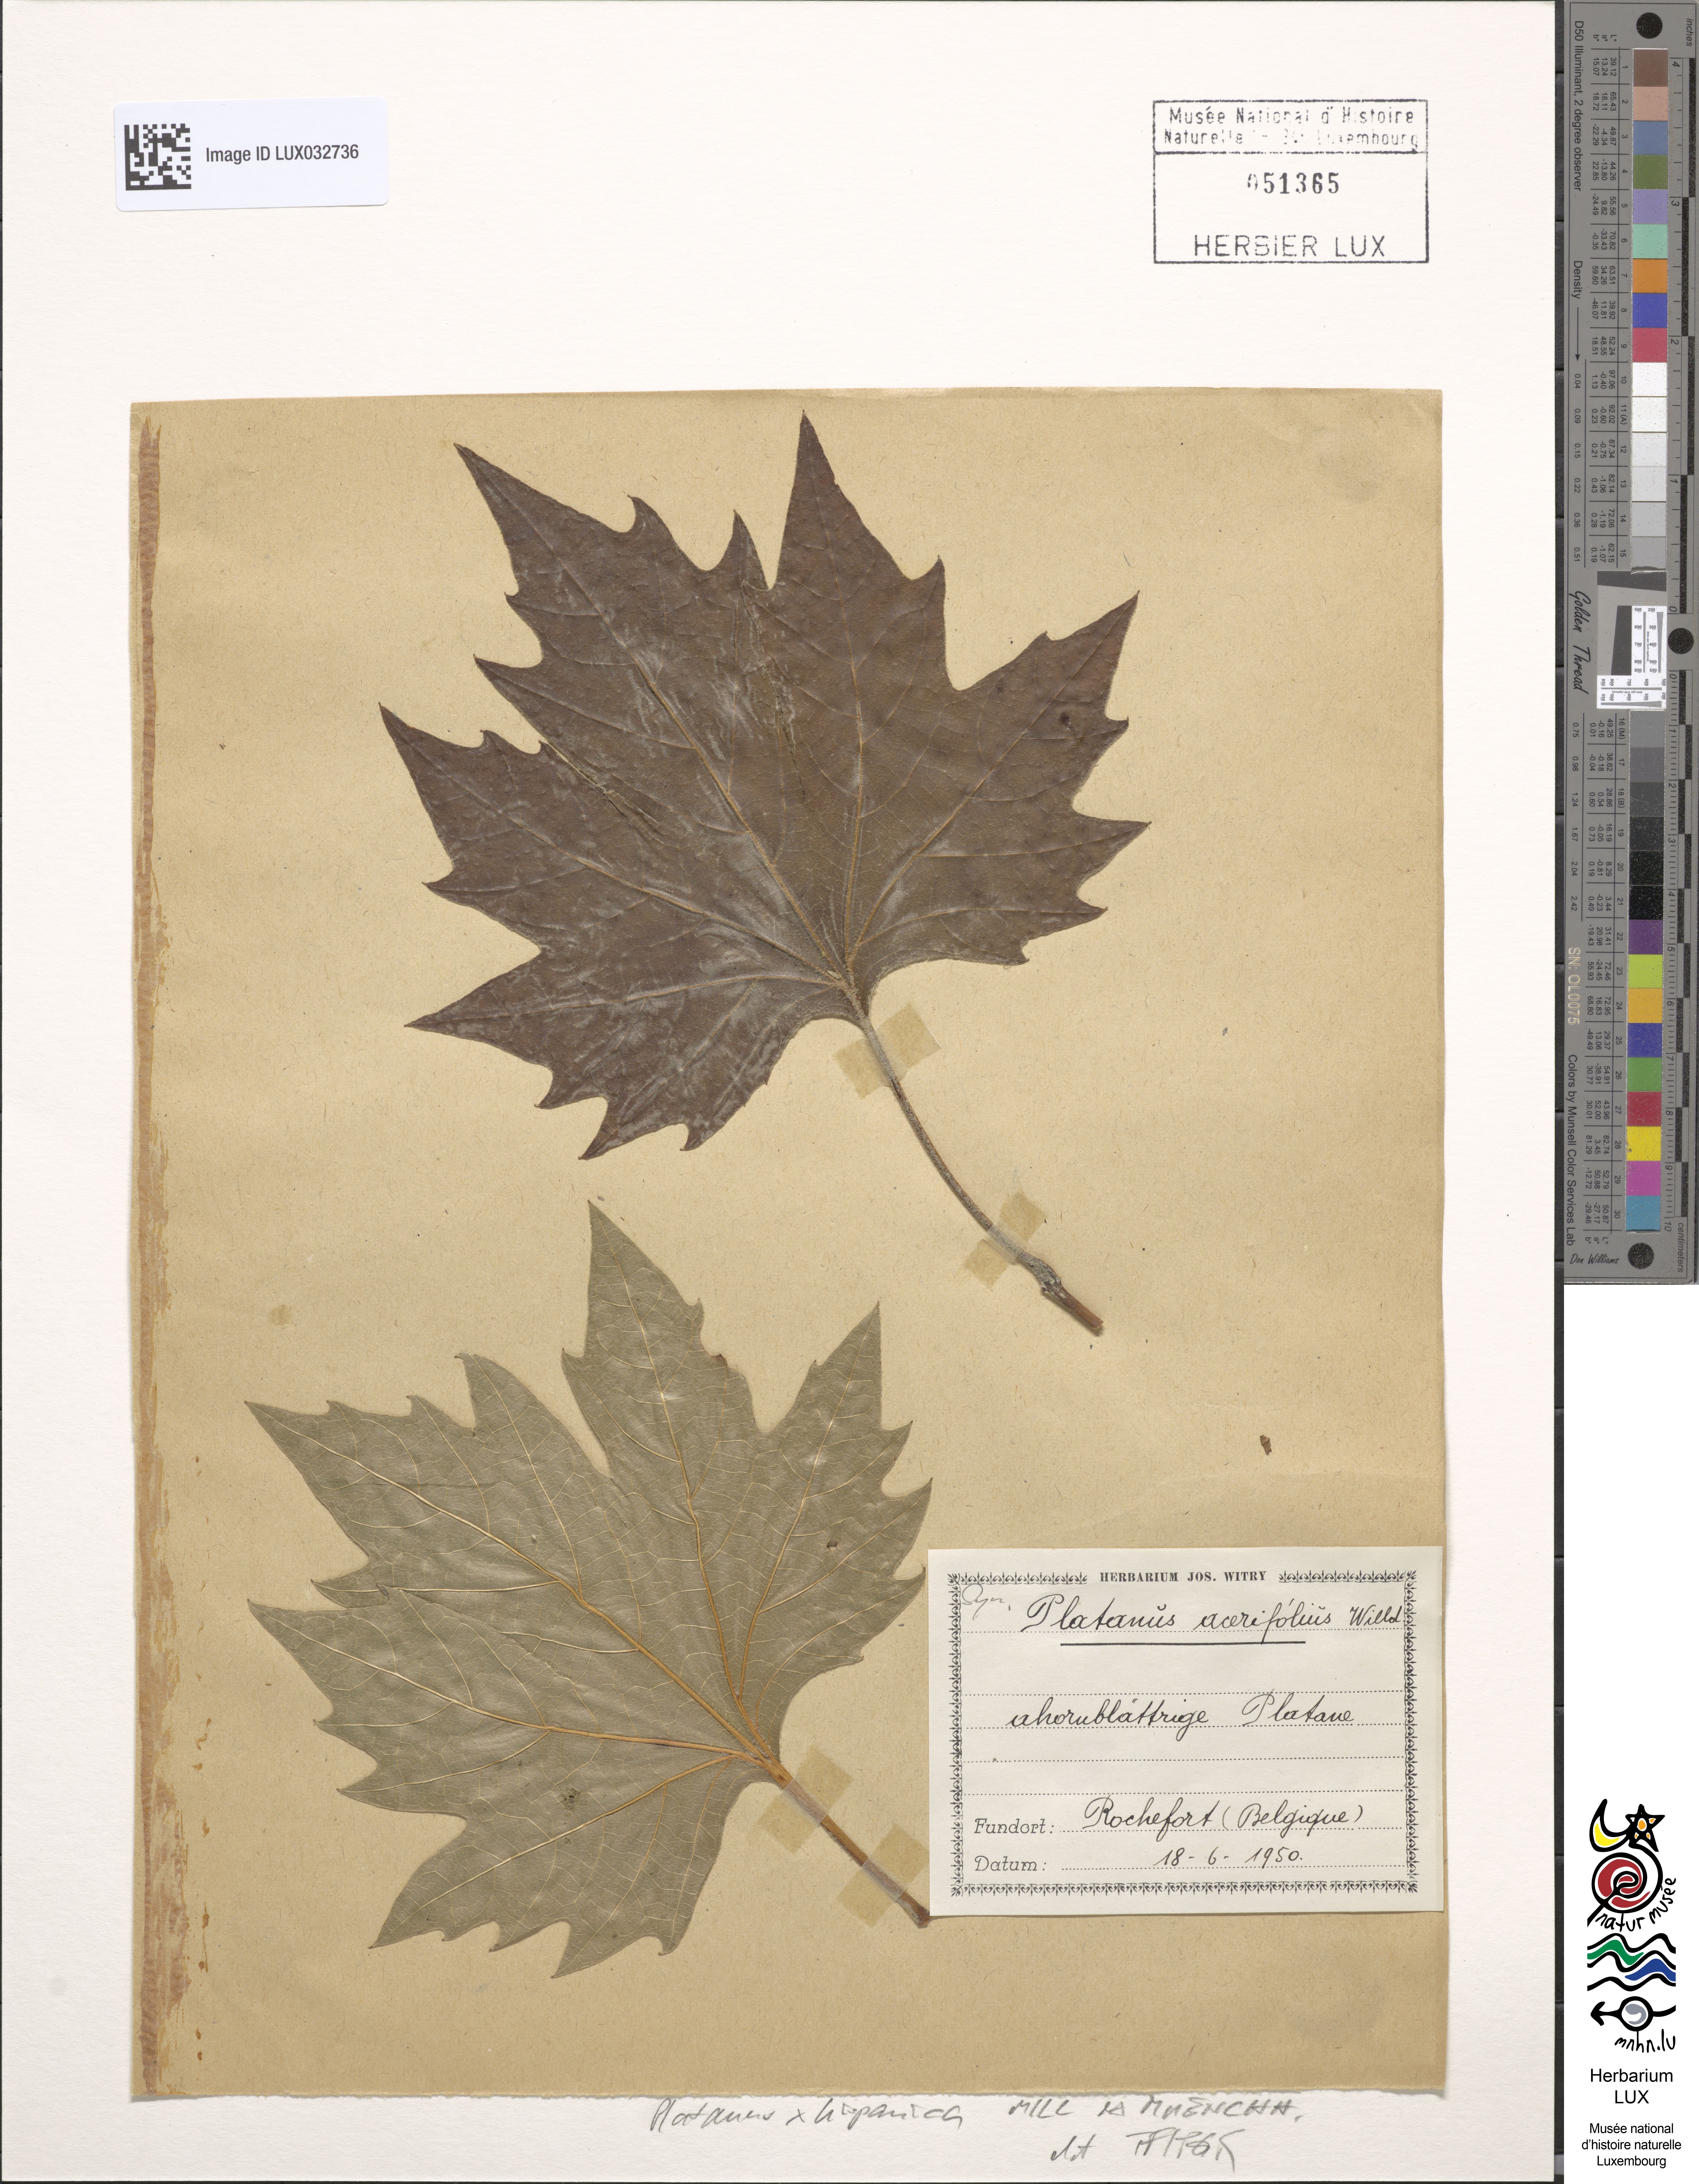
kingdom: Plantae
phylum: Tracheophyta
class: Magnoliopsida
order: Proteales
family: Platanaceae
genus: Platanus
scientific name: Platanus hispanica
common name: London plane
